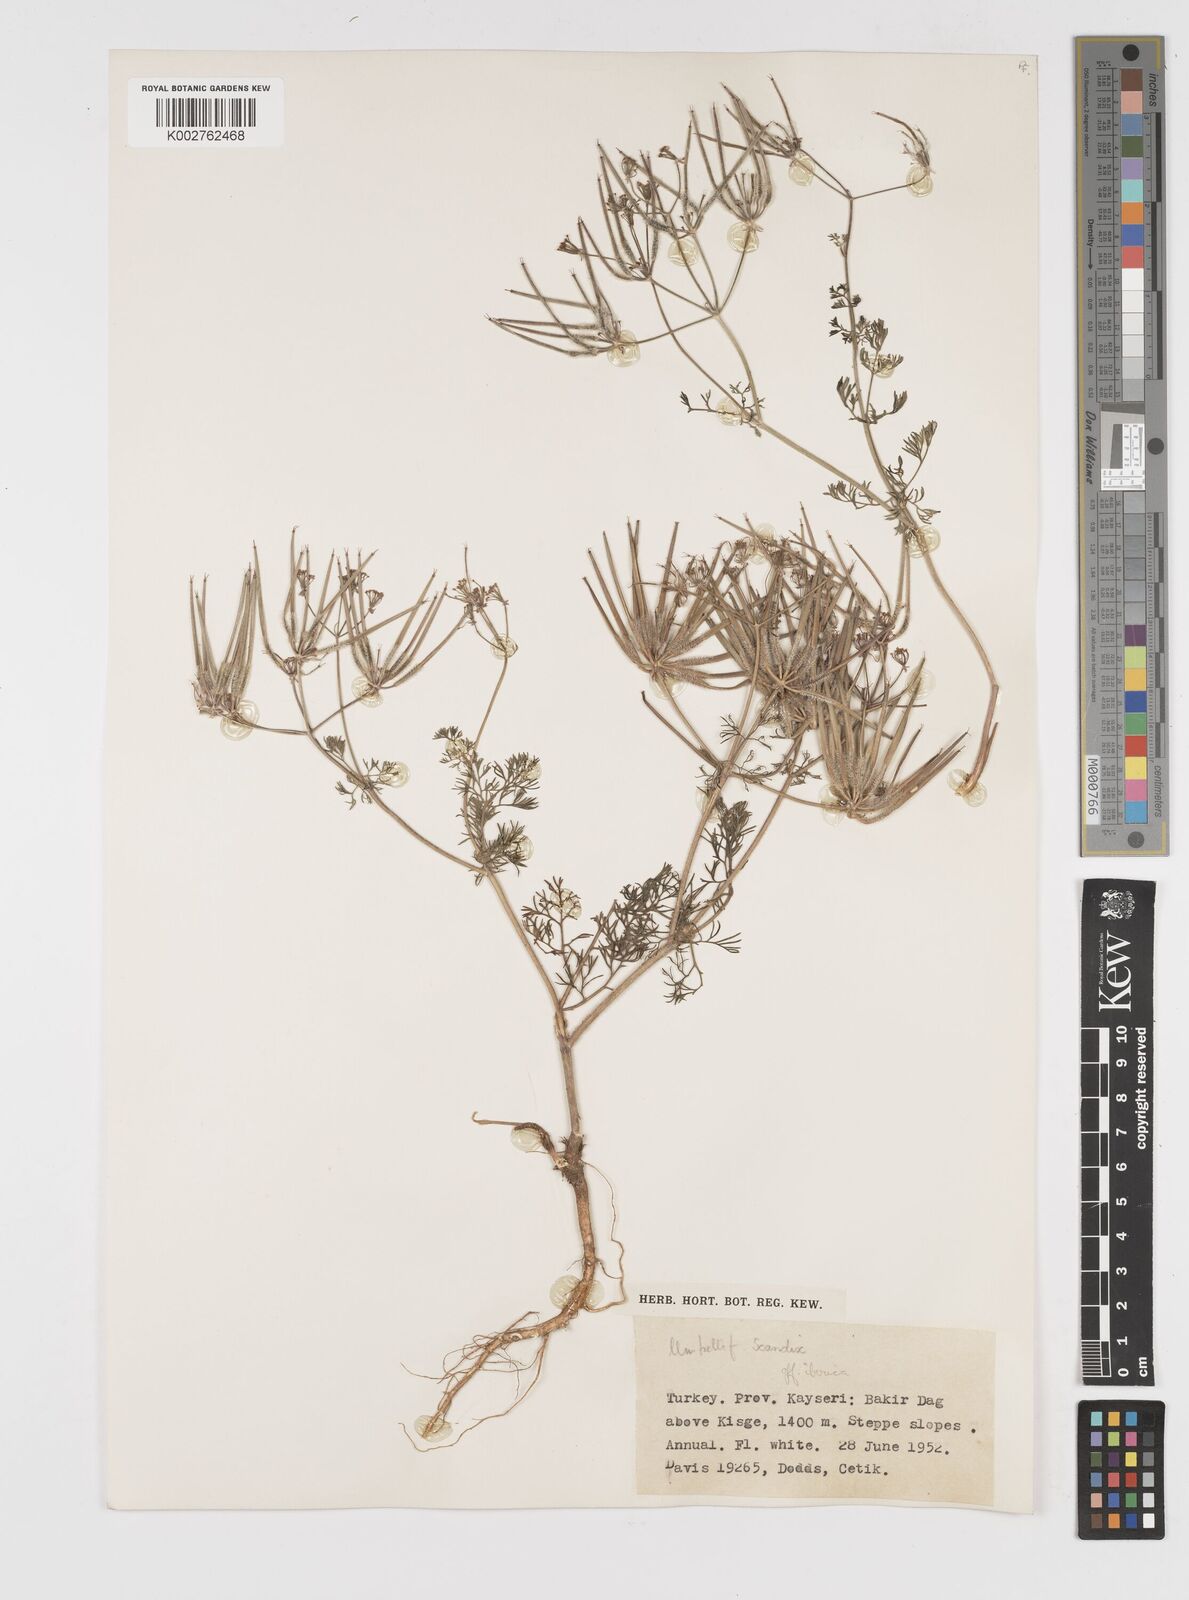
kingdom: Plantae
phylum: Tracheophyta
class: Magnoliopsida
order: Apiales
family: Apiaceae
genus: Scandix
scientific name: Scandix iberica
